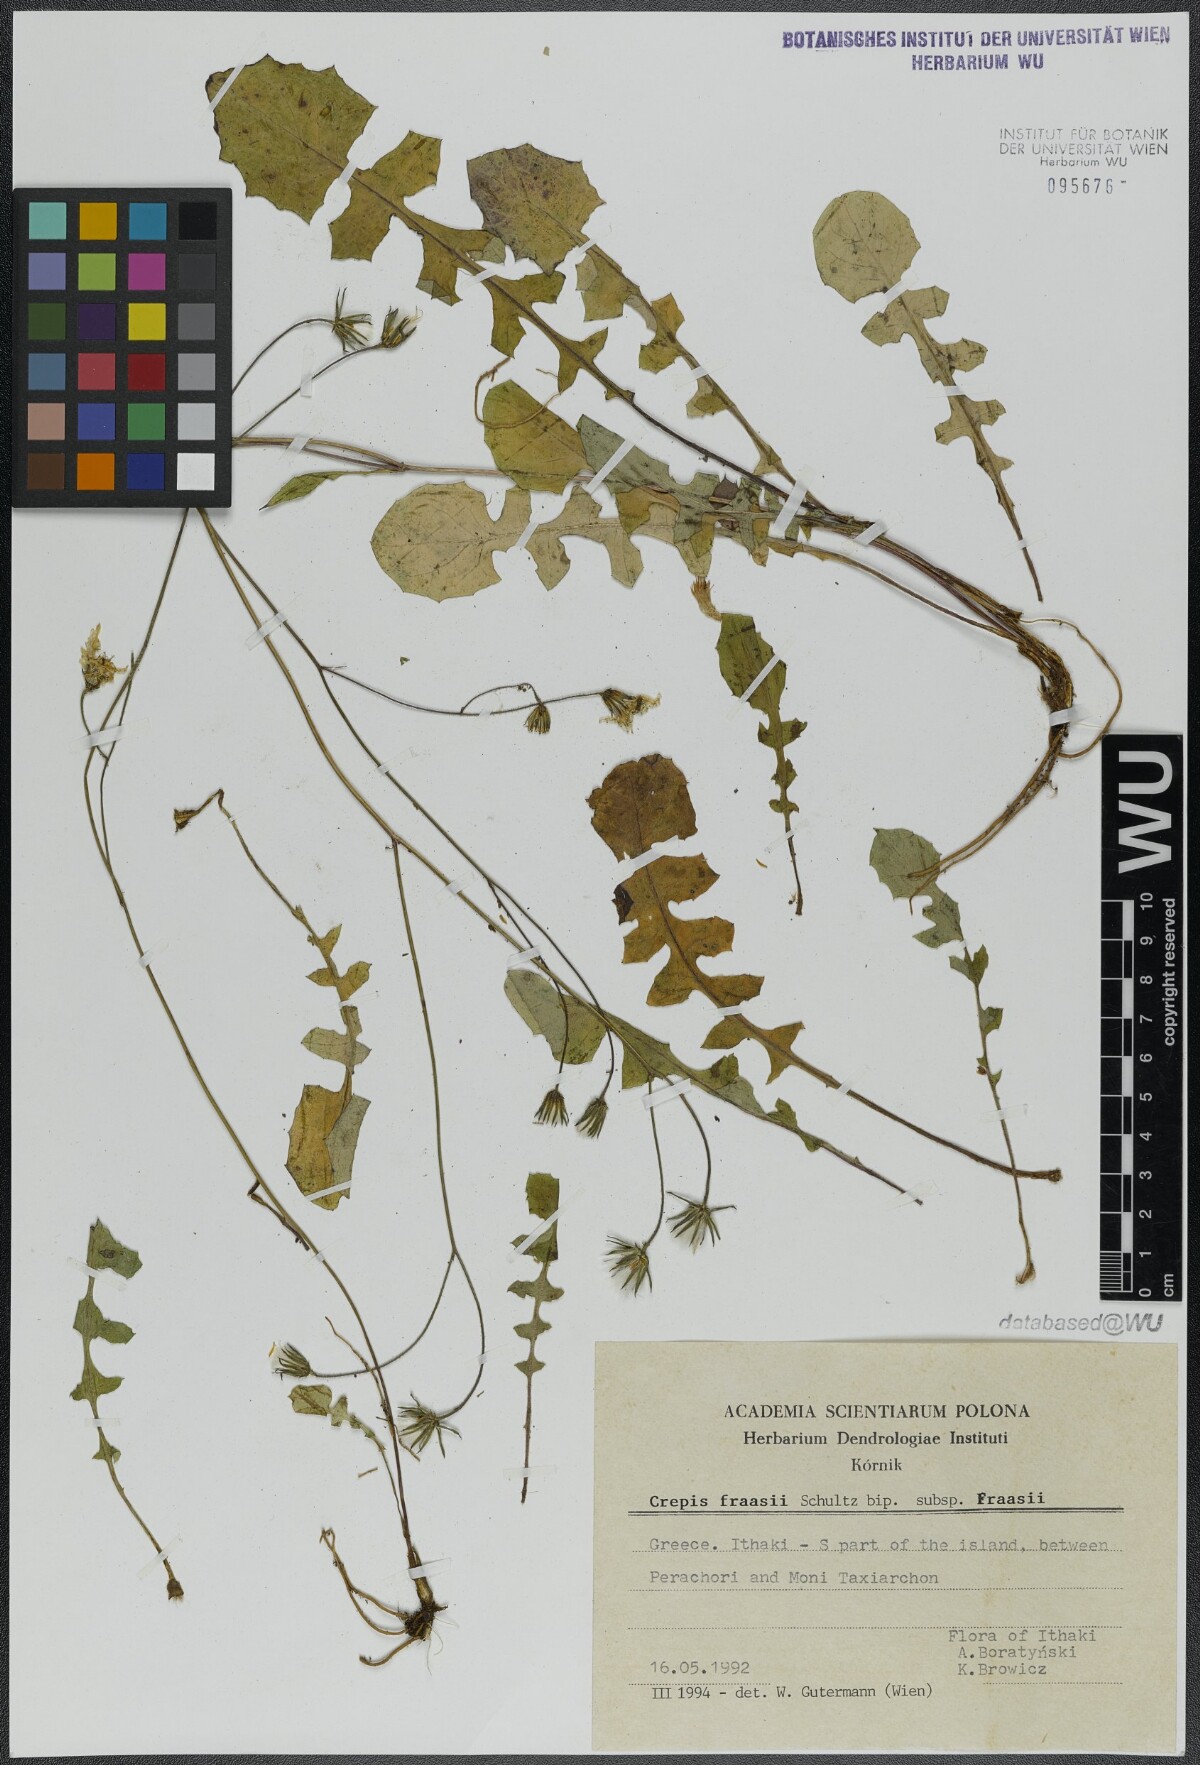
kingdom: Plantae
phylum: Tracheophyta
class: Magnoliopsida
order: Asterales
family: Asteraceae
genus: Crepis
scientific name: Crepis fraasii
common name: Hawk's-beard
